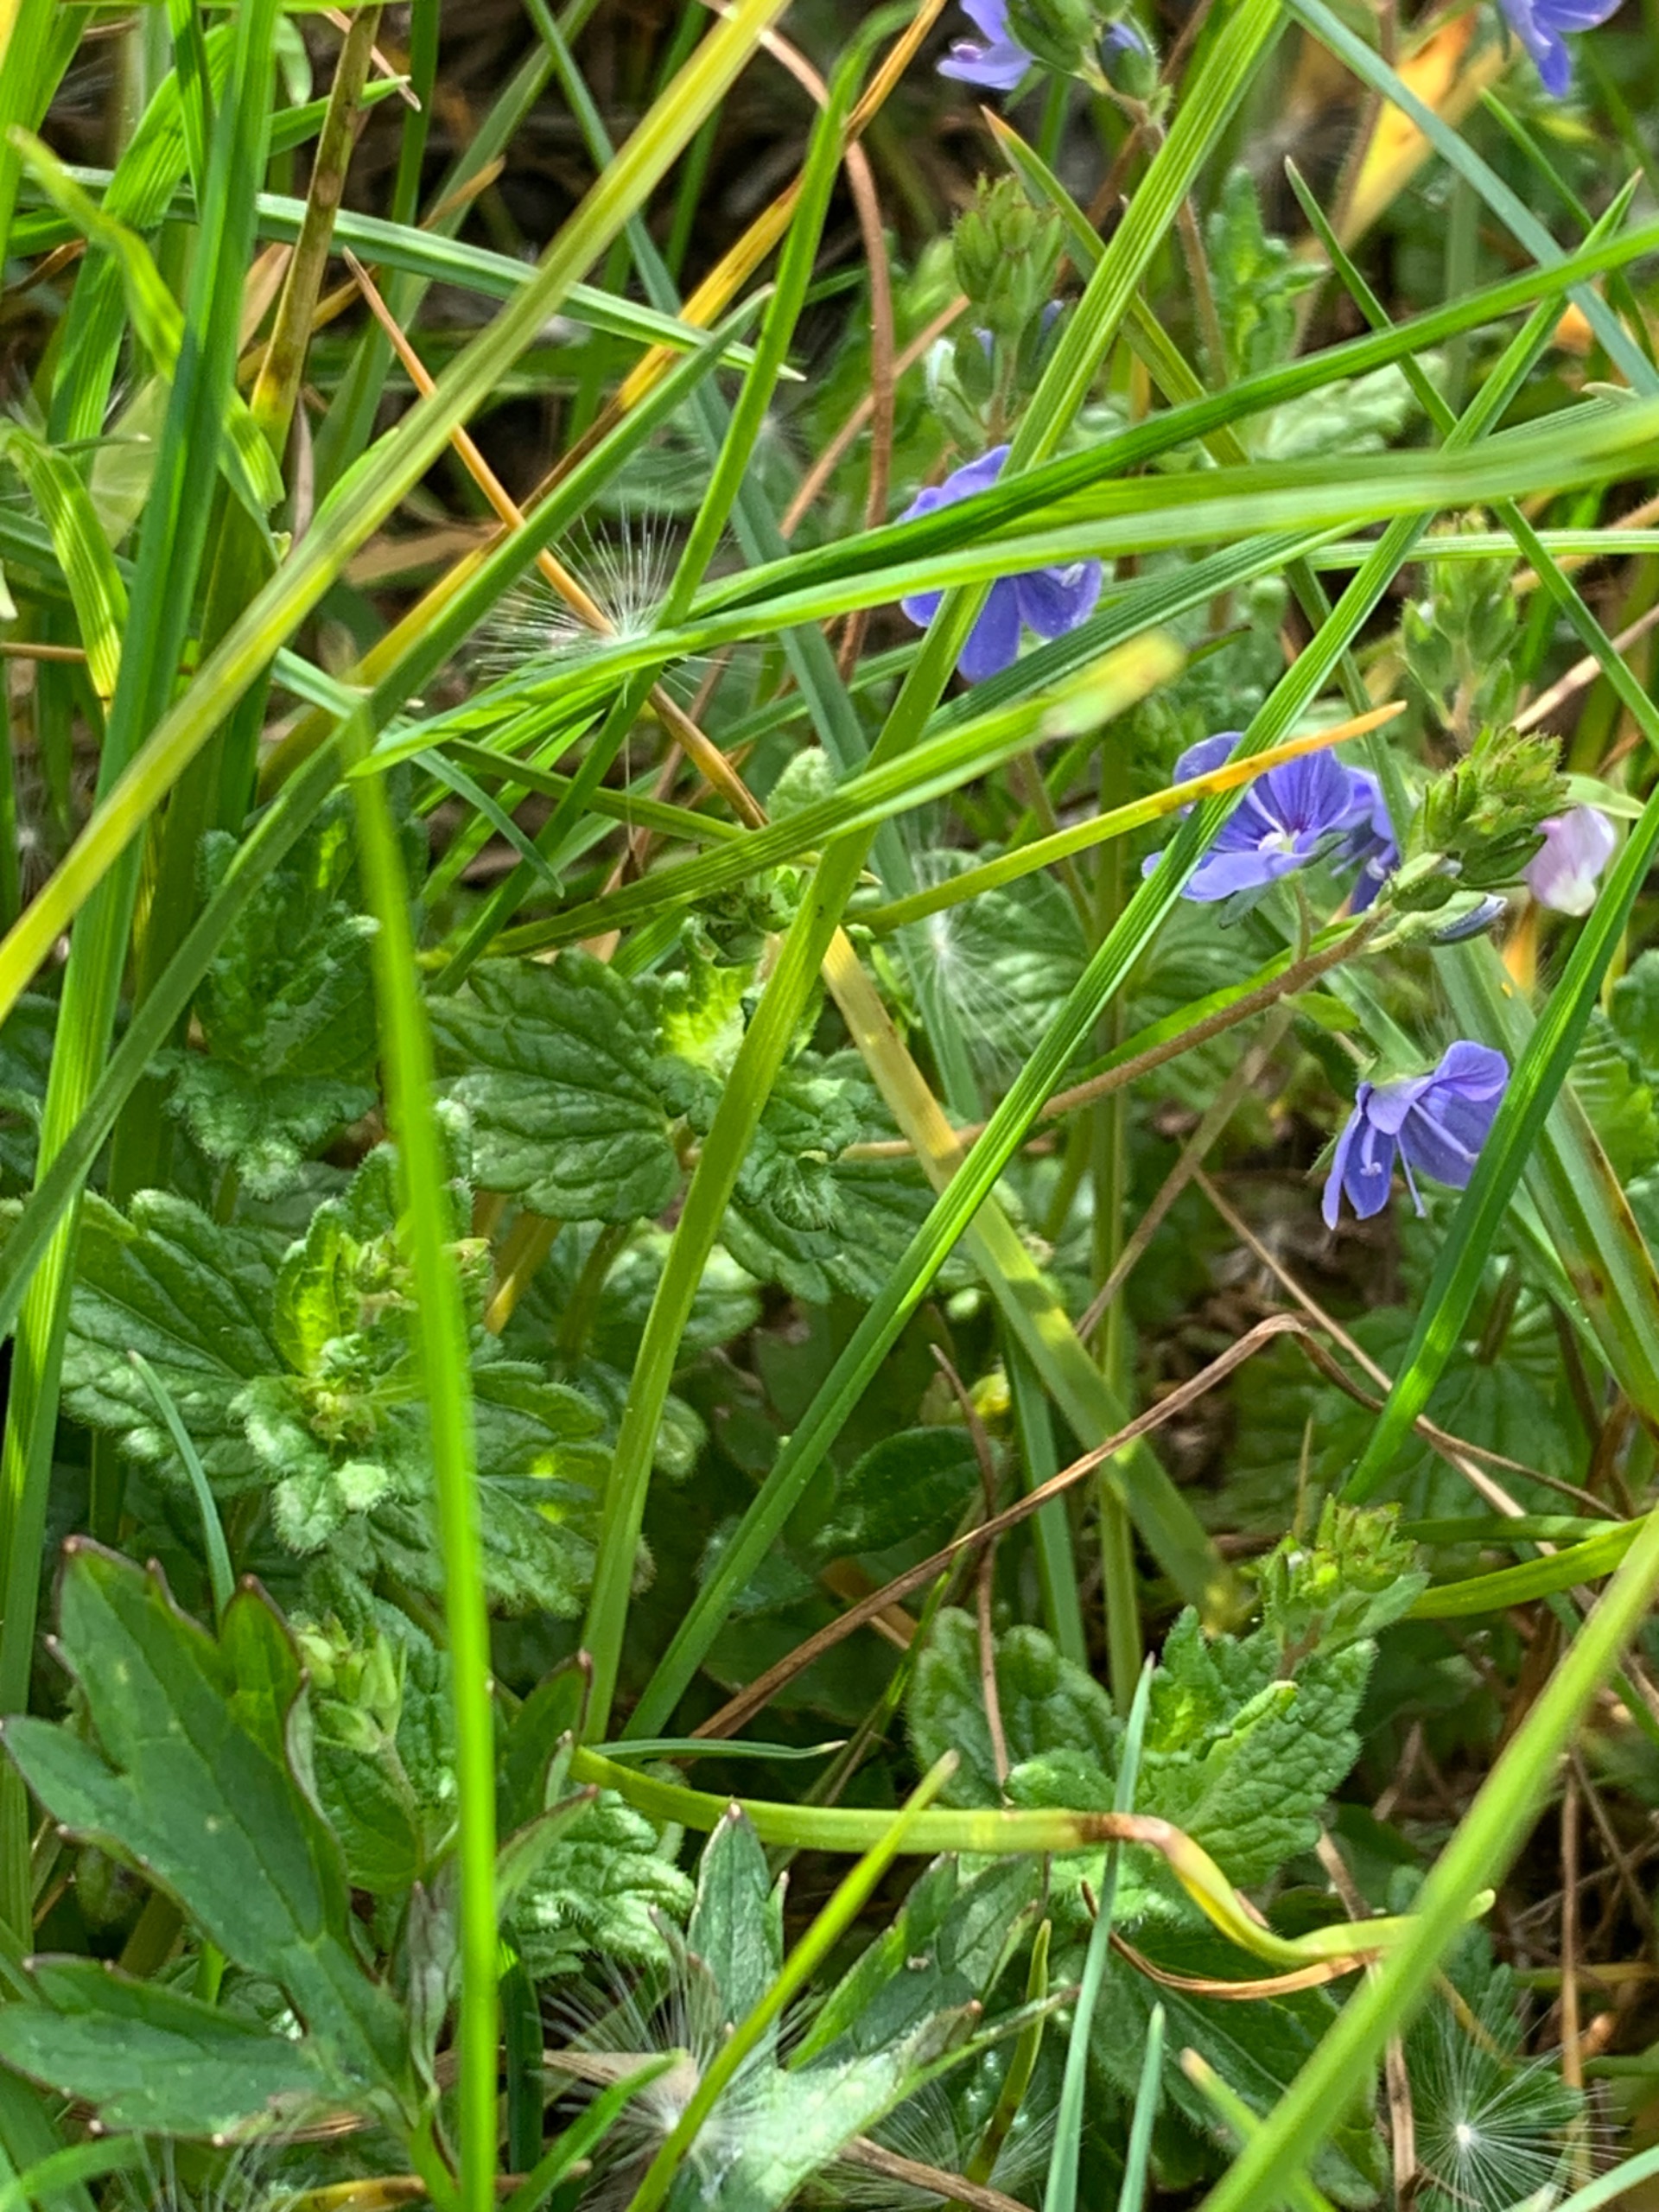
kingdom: Plantae
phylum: Tracheophyta
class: Magnoliopsida
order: Lamiales
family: Plantaginaceae
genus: Veronica
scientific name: Veronica chamaedrys
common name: Tveskægget ærenpris
